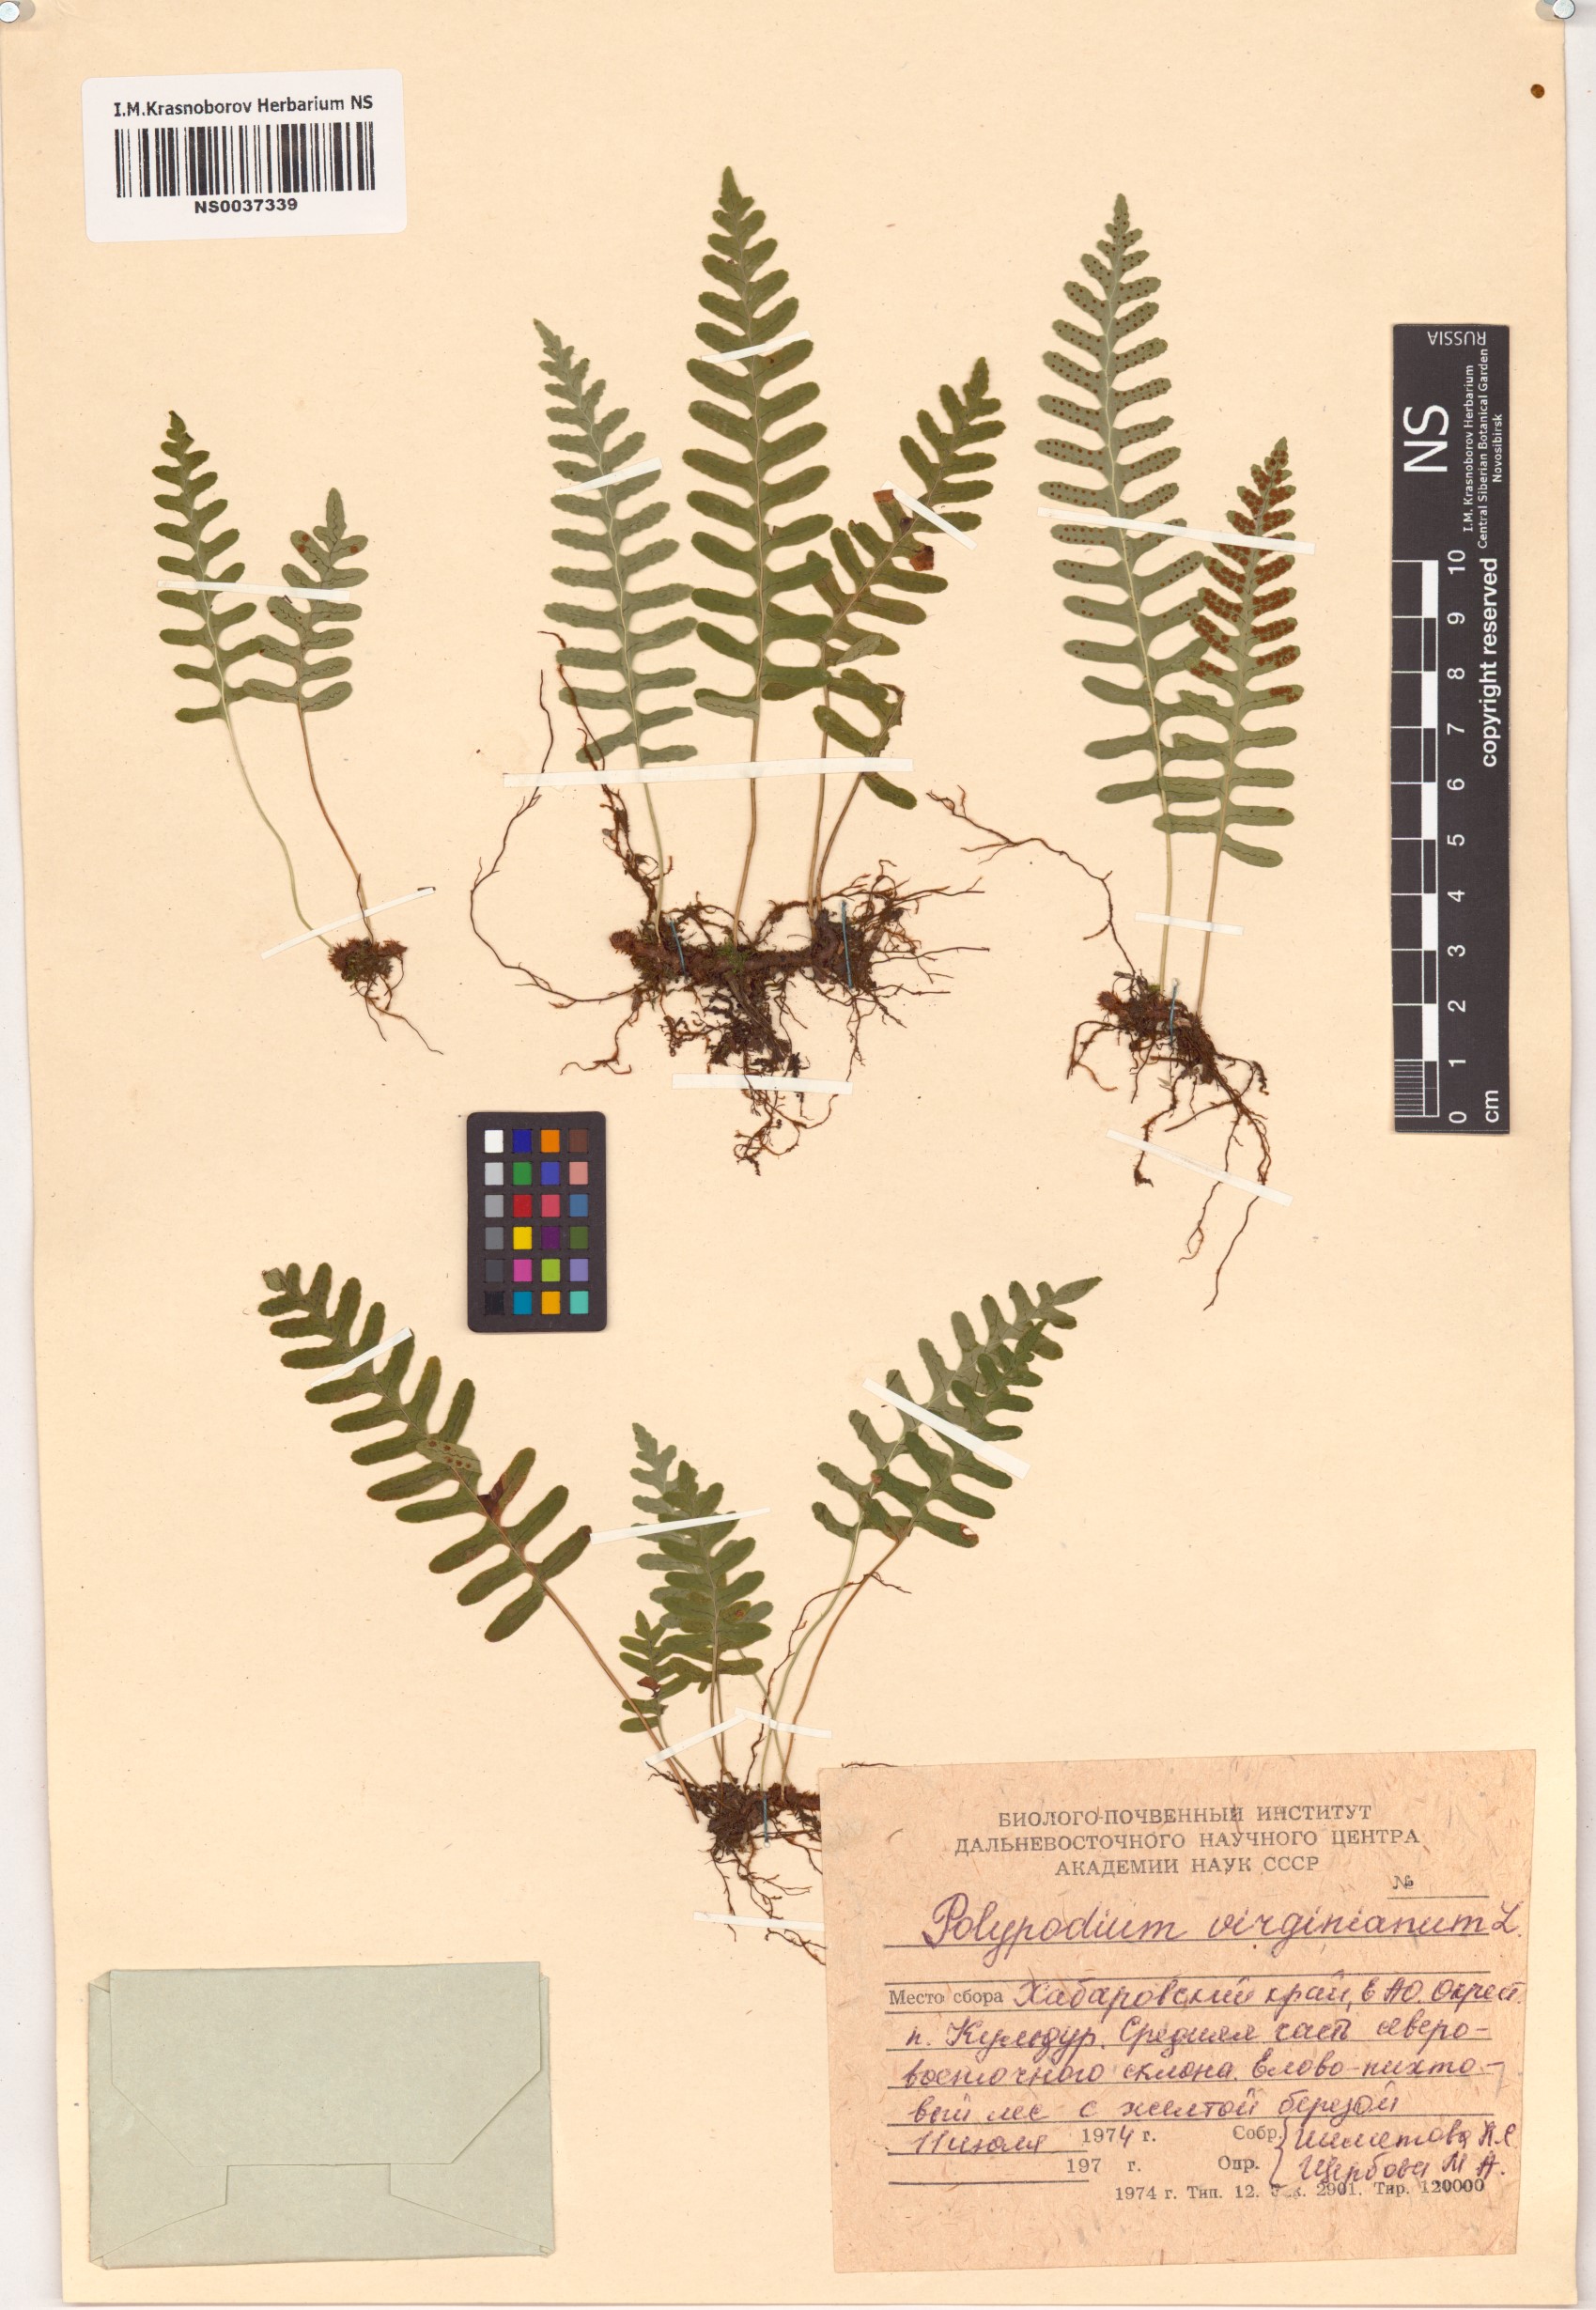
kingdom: Plantae
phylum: Tracheophyta
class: Polypodiopsida
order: Polypodiales
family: Polypodiaceae
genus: Polypodium
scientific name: Polypodium virginianum
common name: American wall fern
